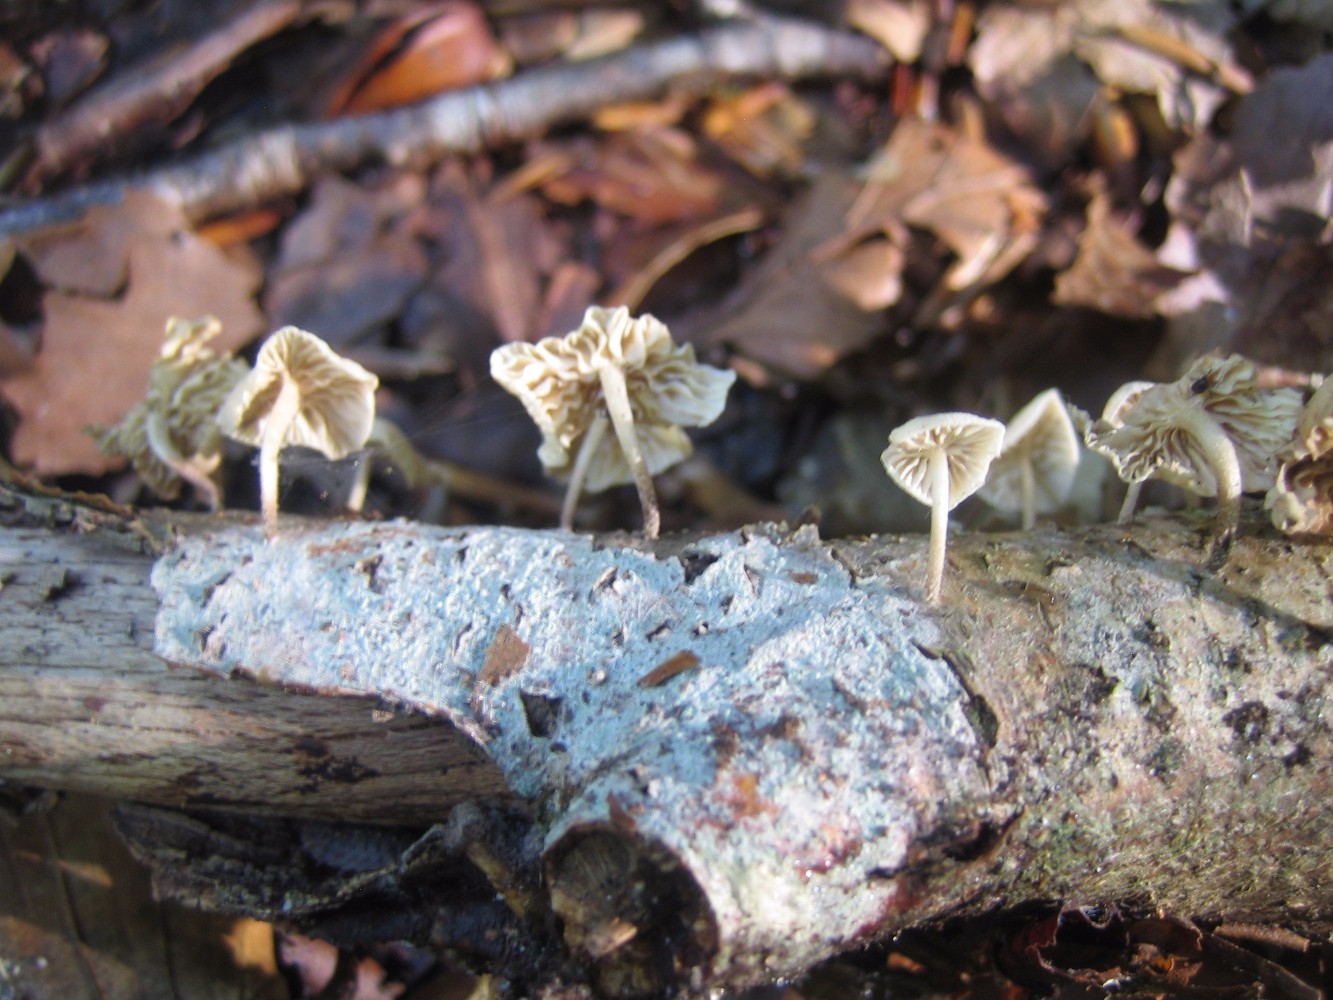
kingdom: Fungi
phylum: Basidiomycota
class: Agaricomycetes
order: Agaricales
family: Omphalotaceae
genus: Collybiopsis
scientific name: Collybiopsis ramealis
